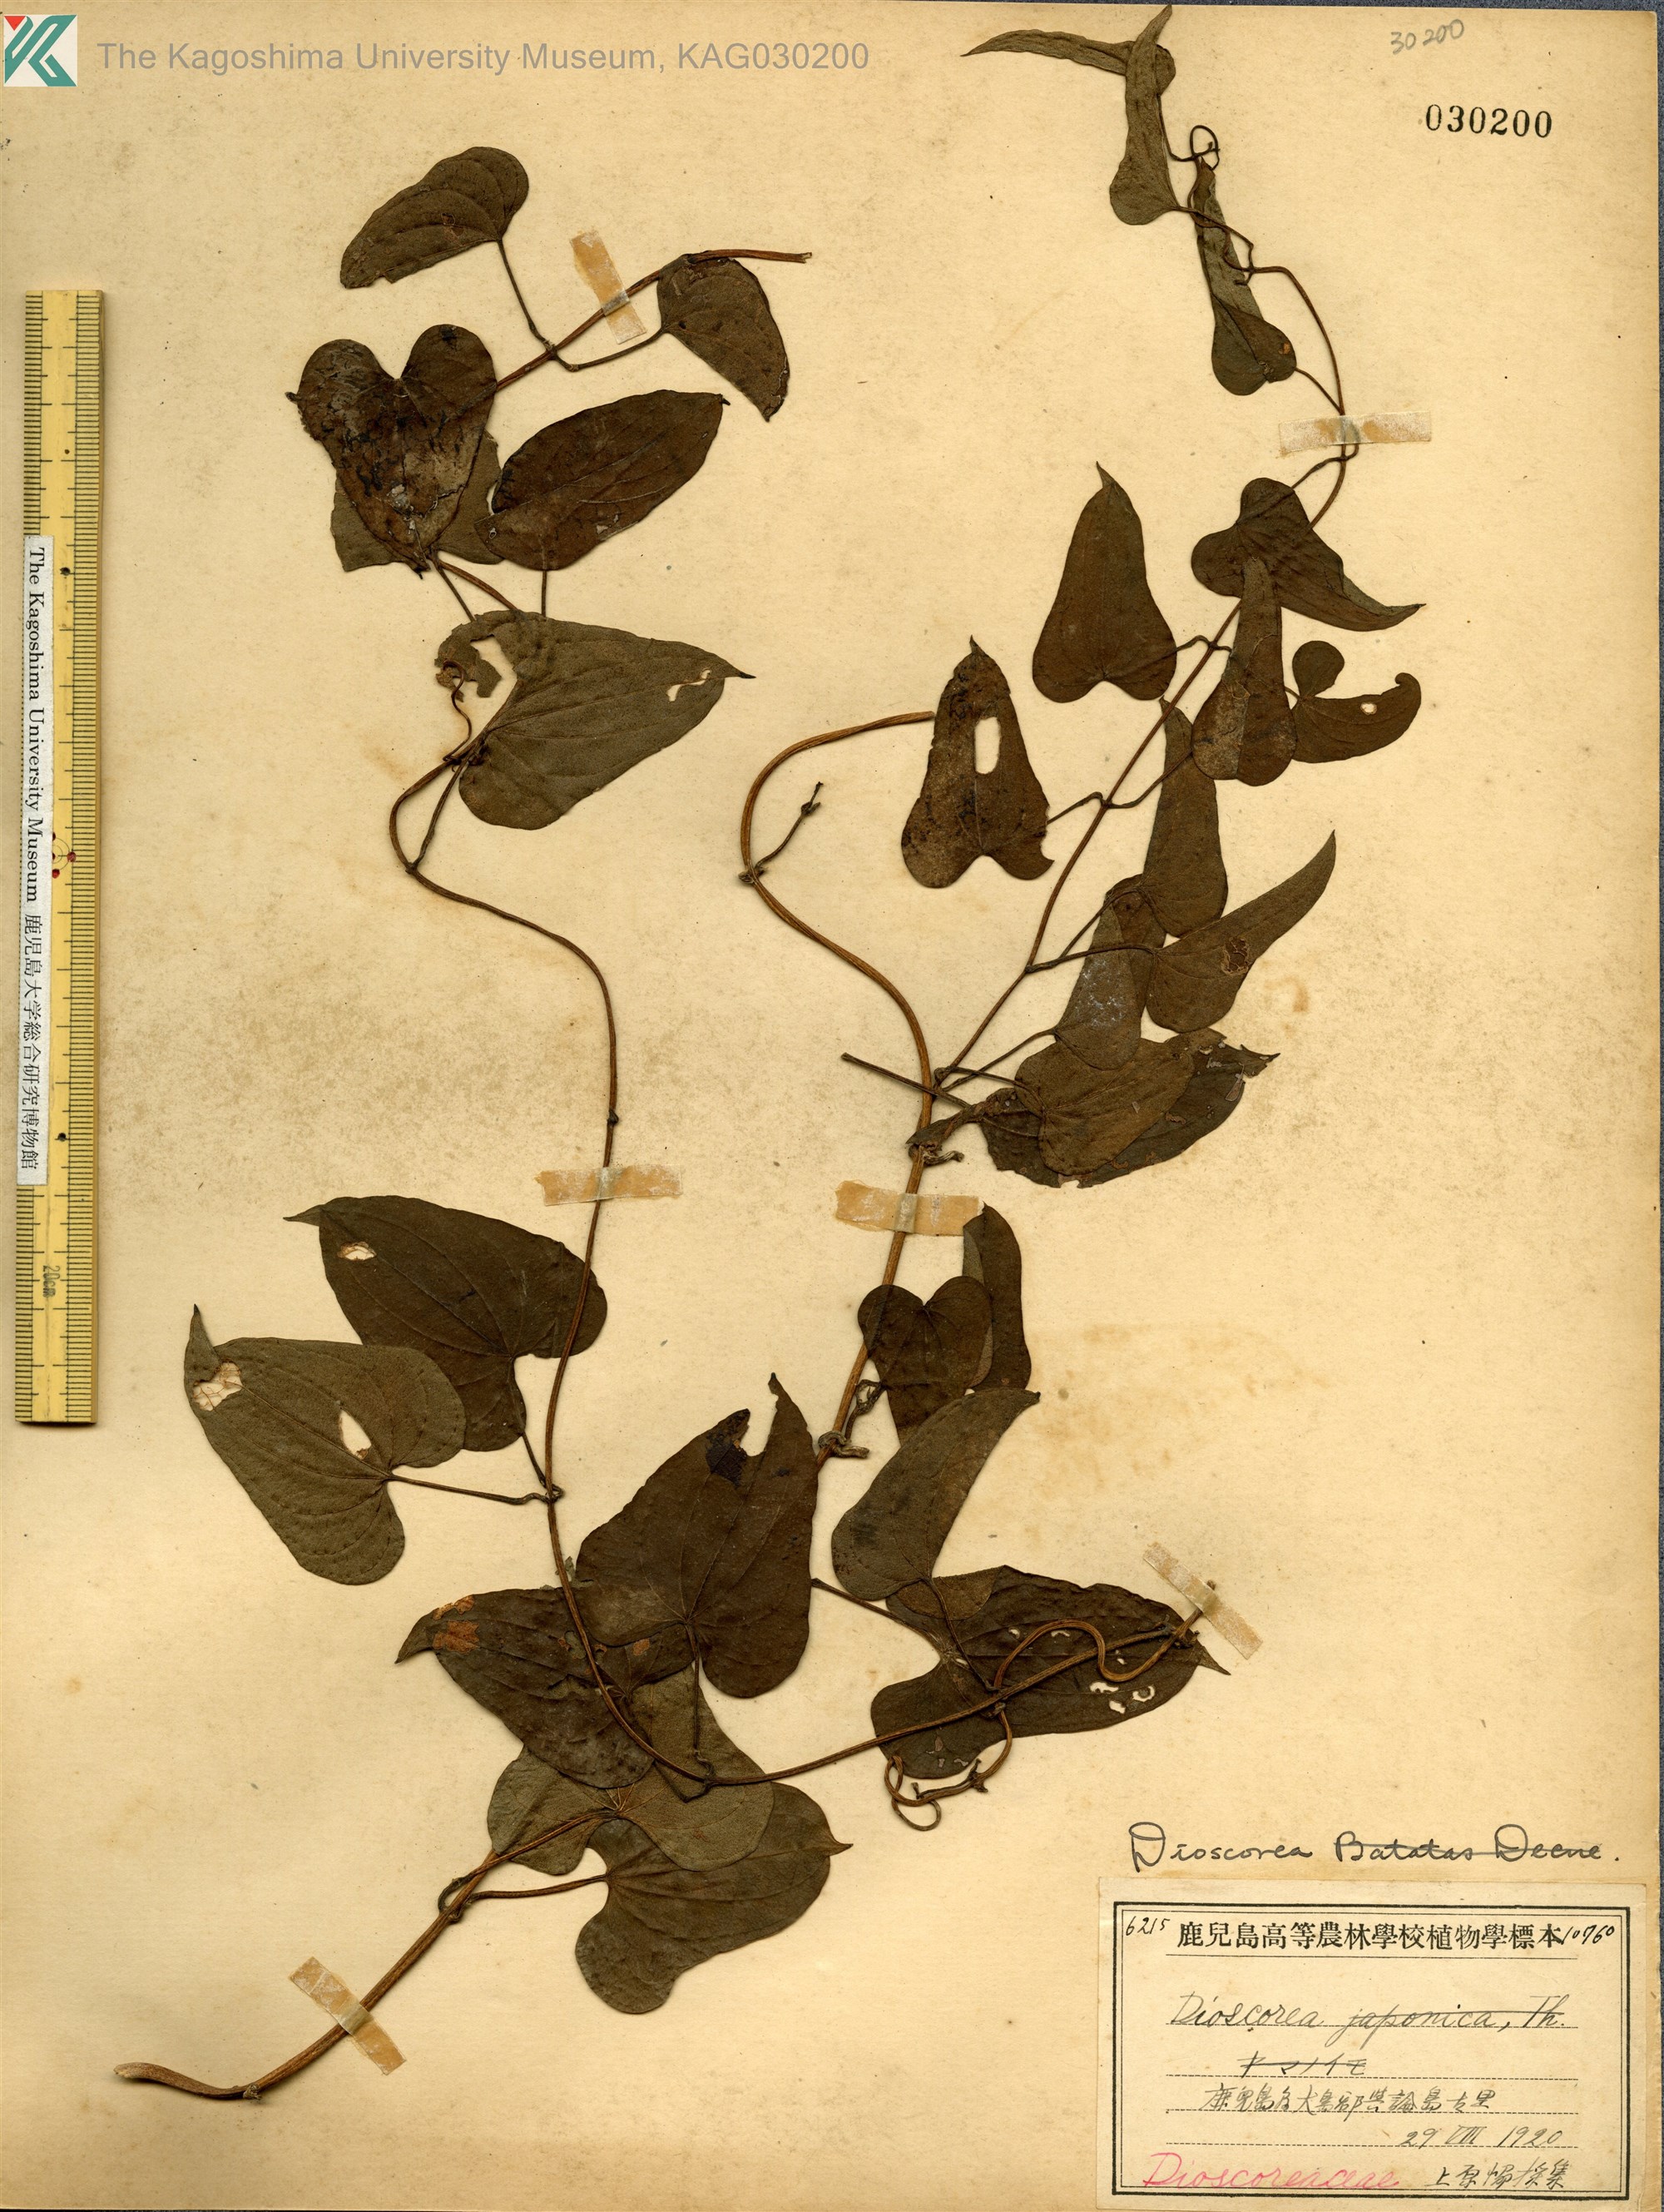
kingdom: Plantae
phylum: Tracheophyta
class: Liliopsida
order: Dioscoreales
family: Dioscoreaceae
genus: Dioscorea
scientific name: Dioscorea japonica
